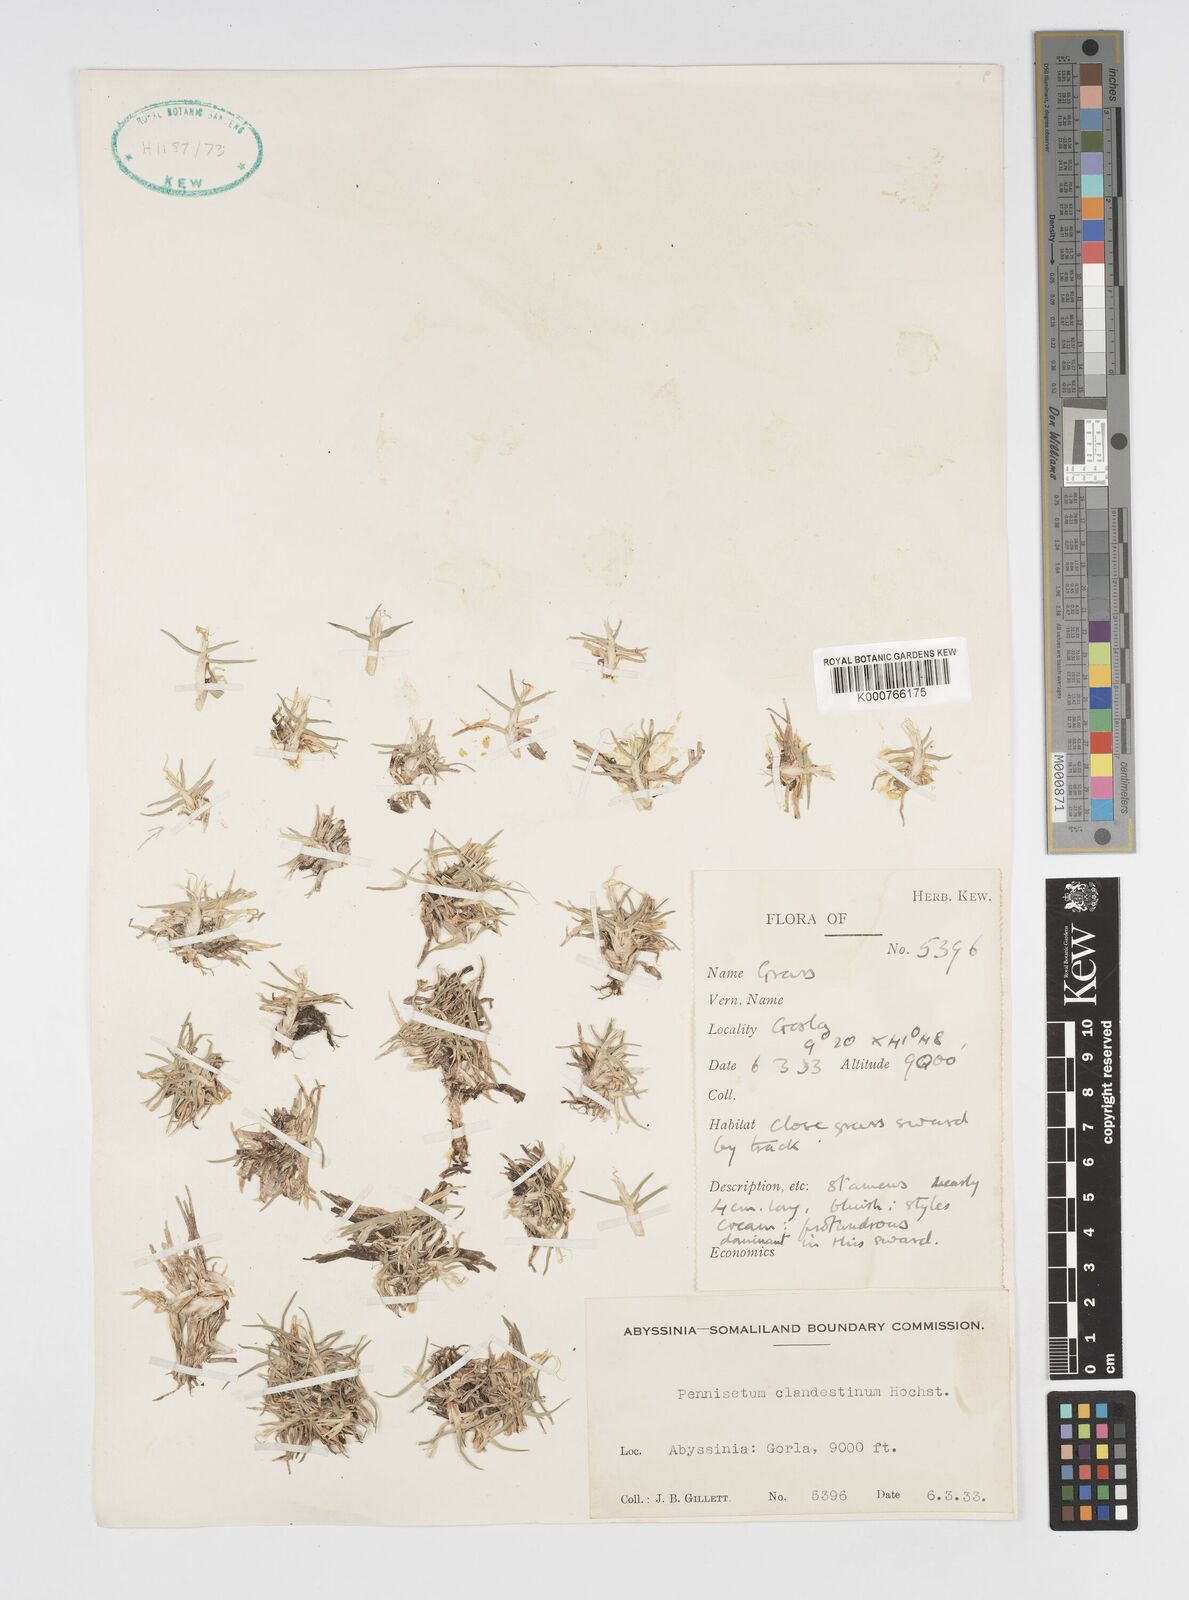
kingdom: Plantae
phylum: Tracheophyta
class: Liliopsida
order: Poales
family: Poaceae
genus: Cenchrus
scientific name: Cenchrus clandestinus
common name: Kikuyugrass
